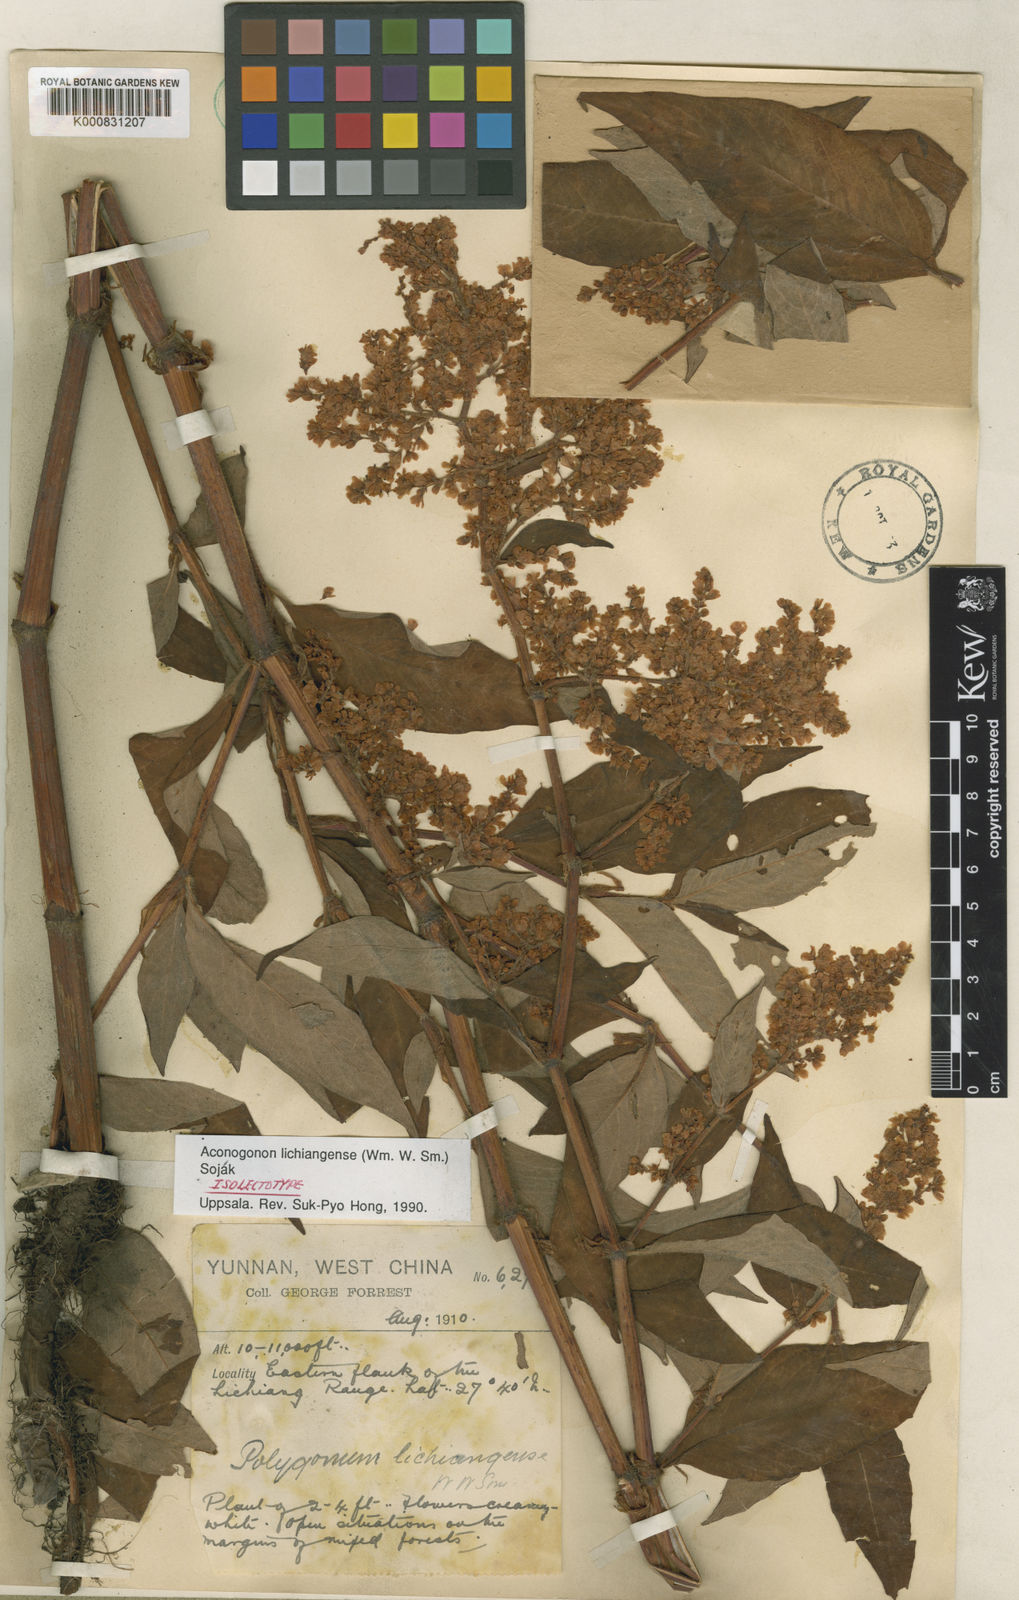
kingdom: Plantae
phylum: Tracheophyta
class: Magnoliopsida
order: Caryophyllales
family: Polygonaceae
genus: Koenigia
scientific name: Koenigia
